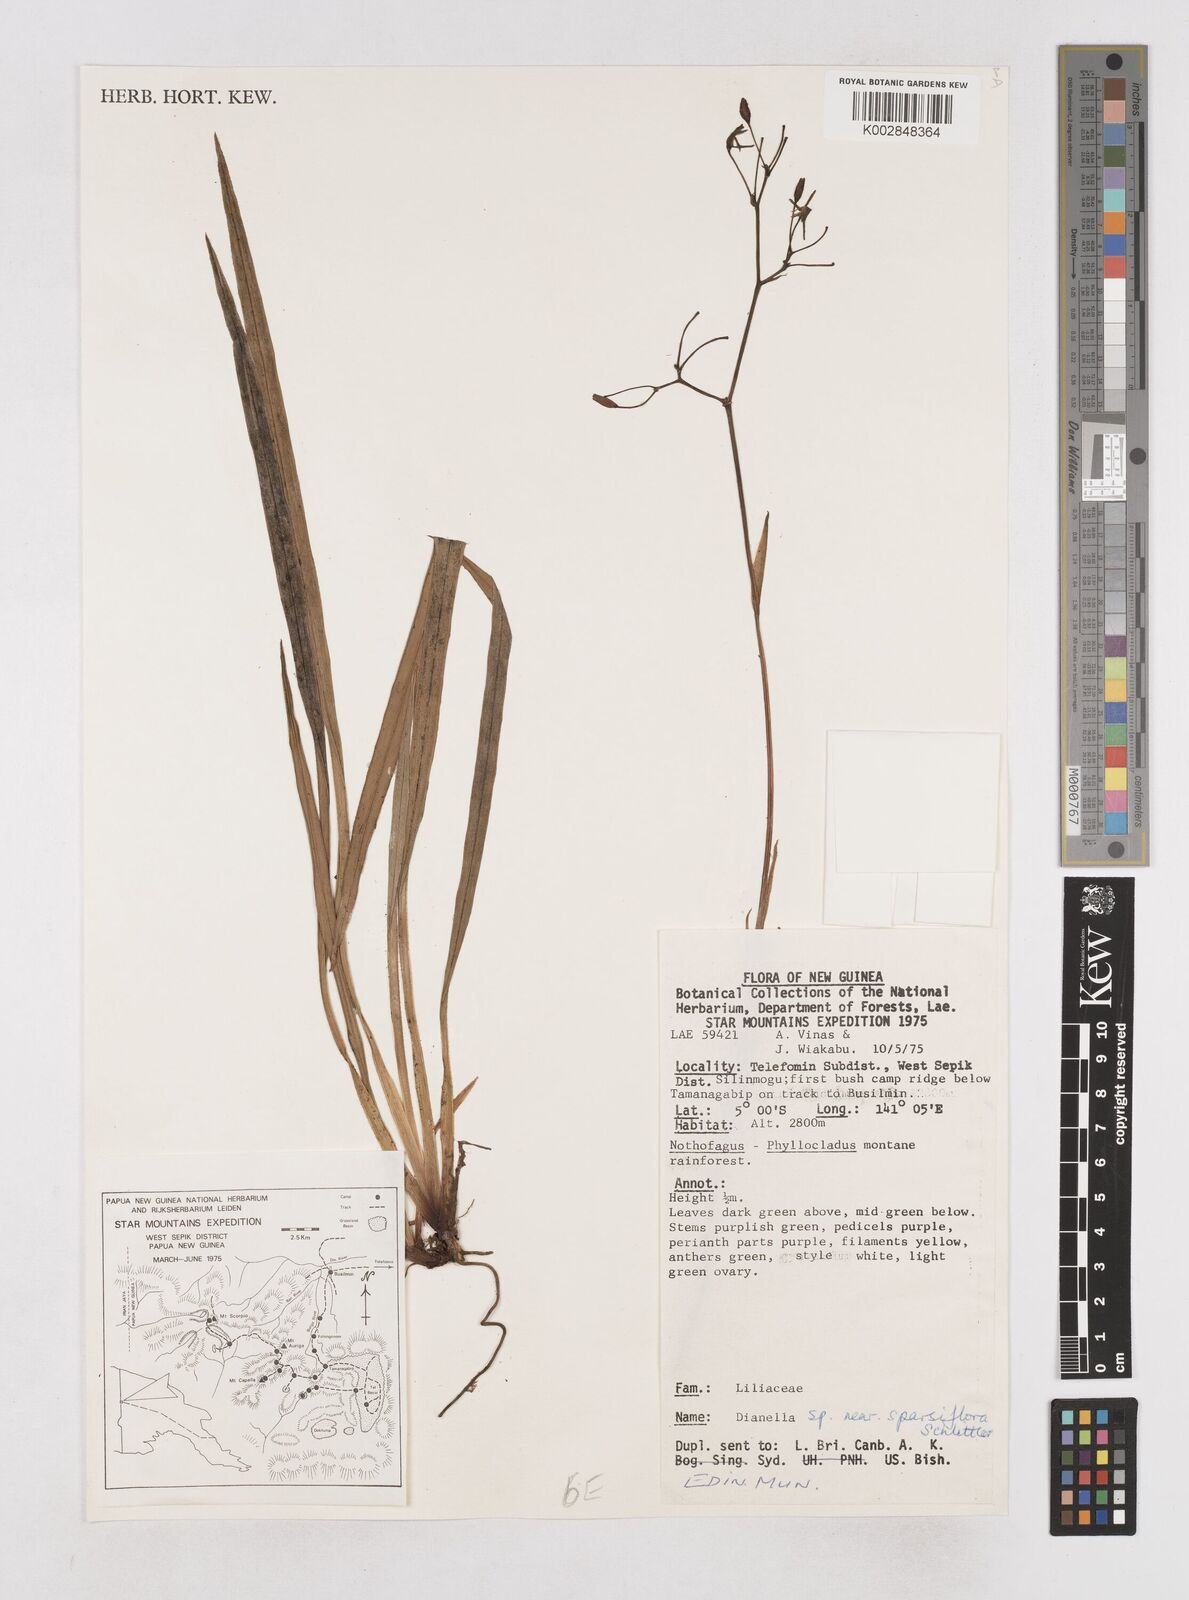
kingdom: Plantae
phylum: Tracheophyta
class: Liliopsida
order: Asparagales
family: Asphodelaceae
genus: Dianella
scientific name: Dianella ensifolia
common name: New zealand lilyplant
